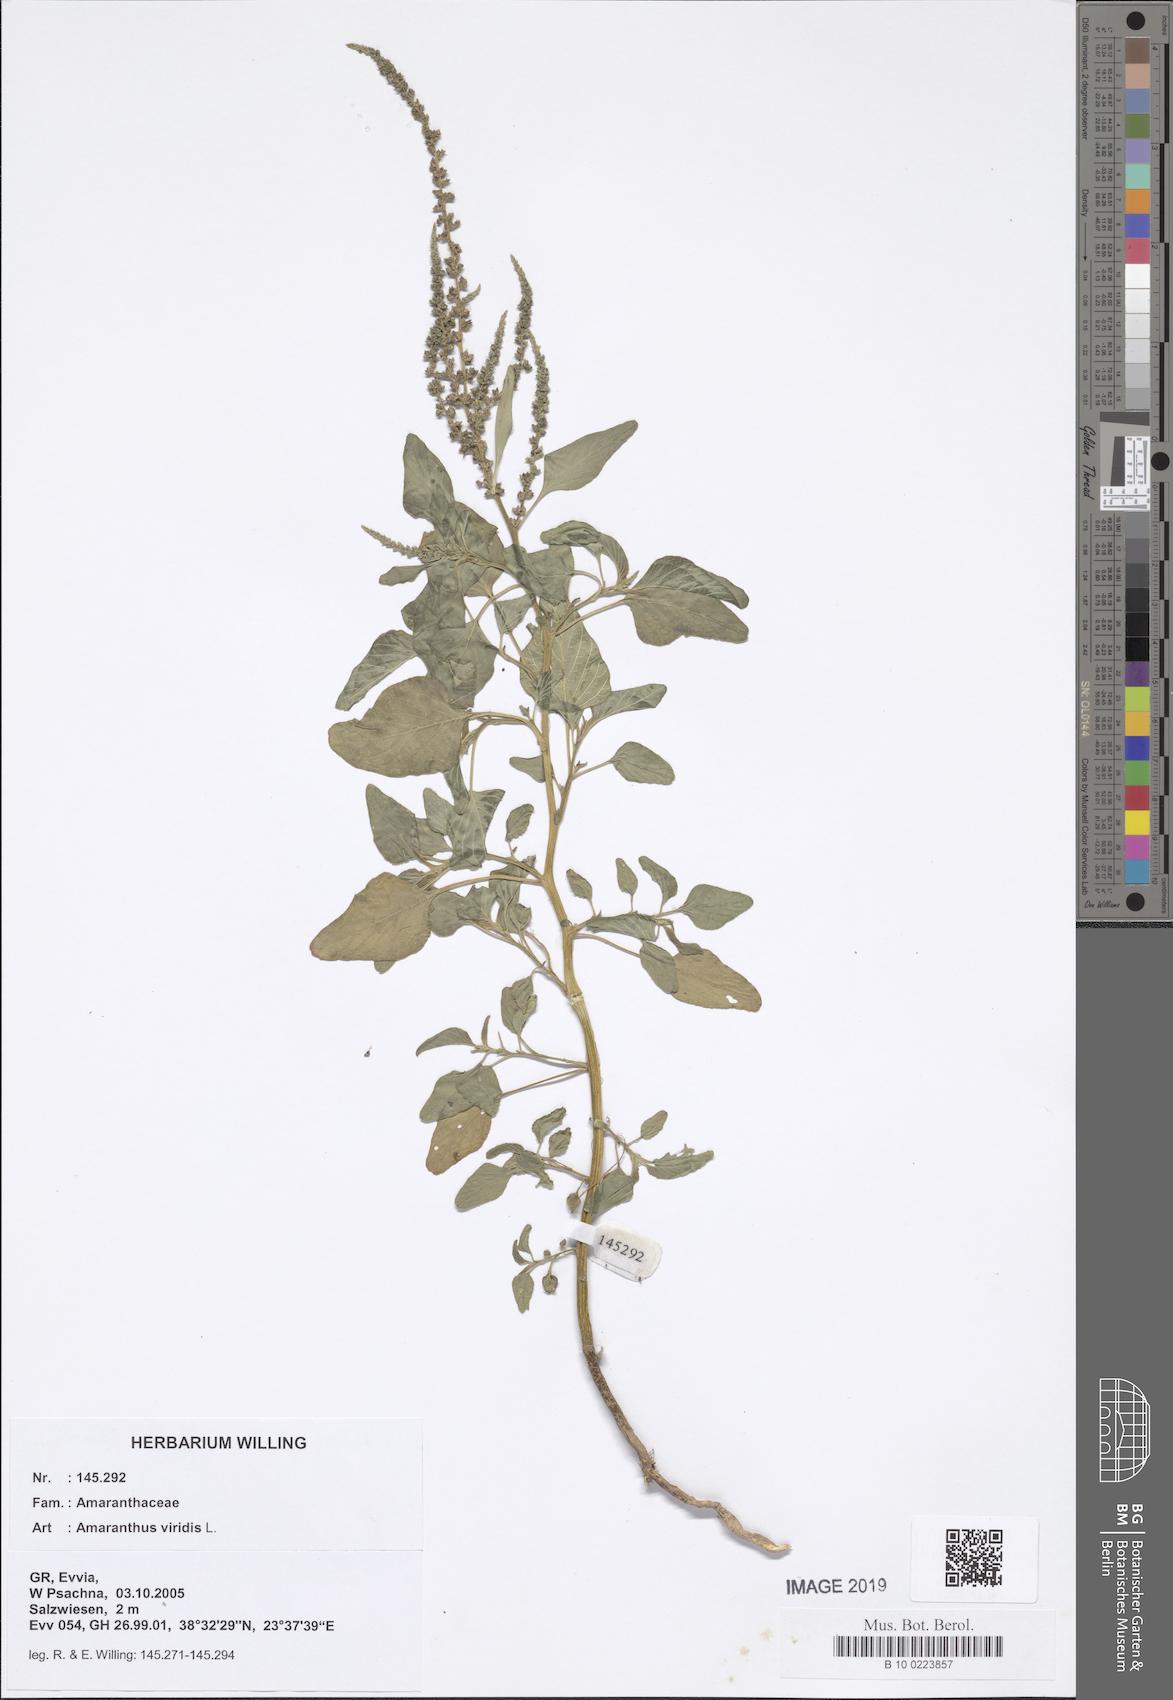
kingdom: Plantae
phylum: Tracheophyta
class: Magnoliopsida
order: Caryophyllales
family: Amaranthaceae
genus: Amaranthus
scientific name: Amaranthus viridis
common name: Slender amaranth
